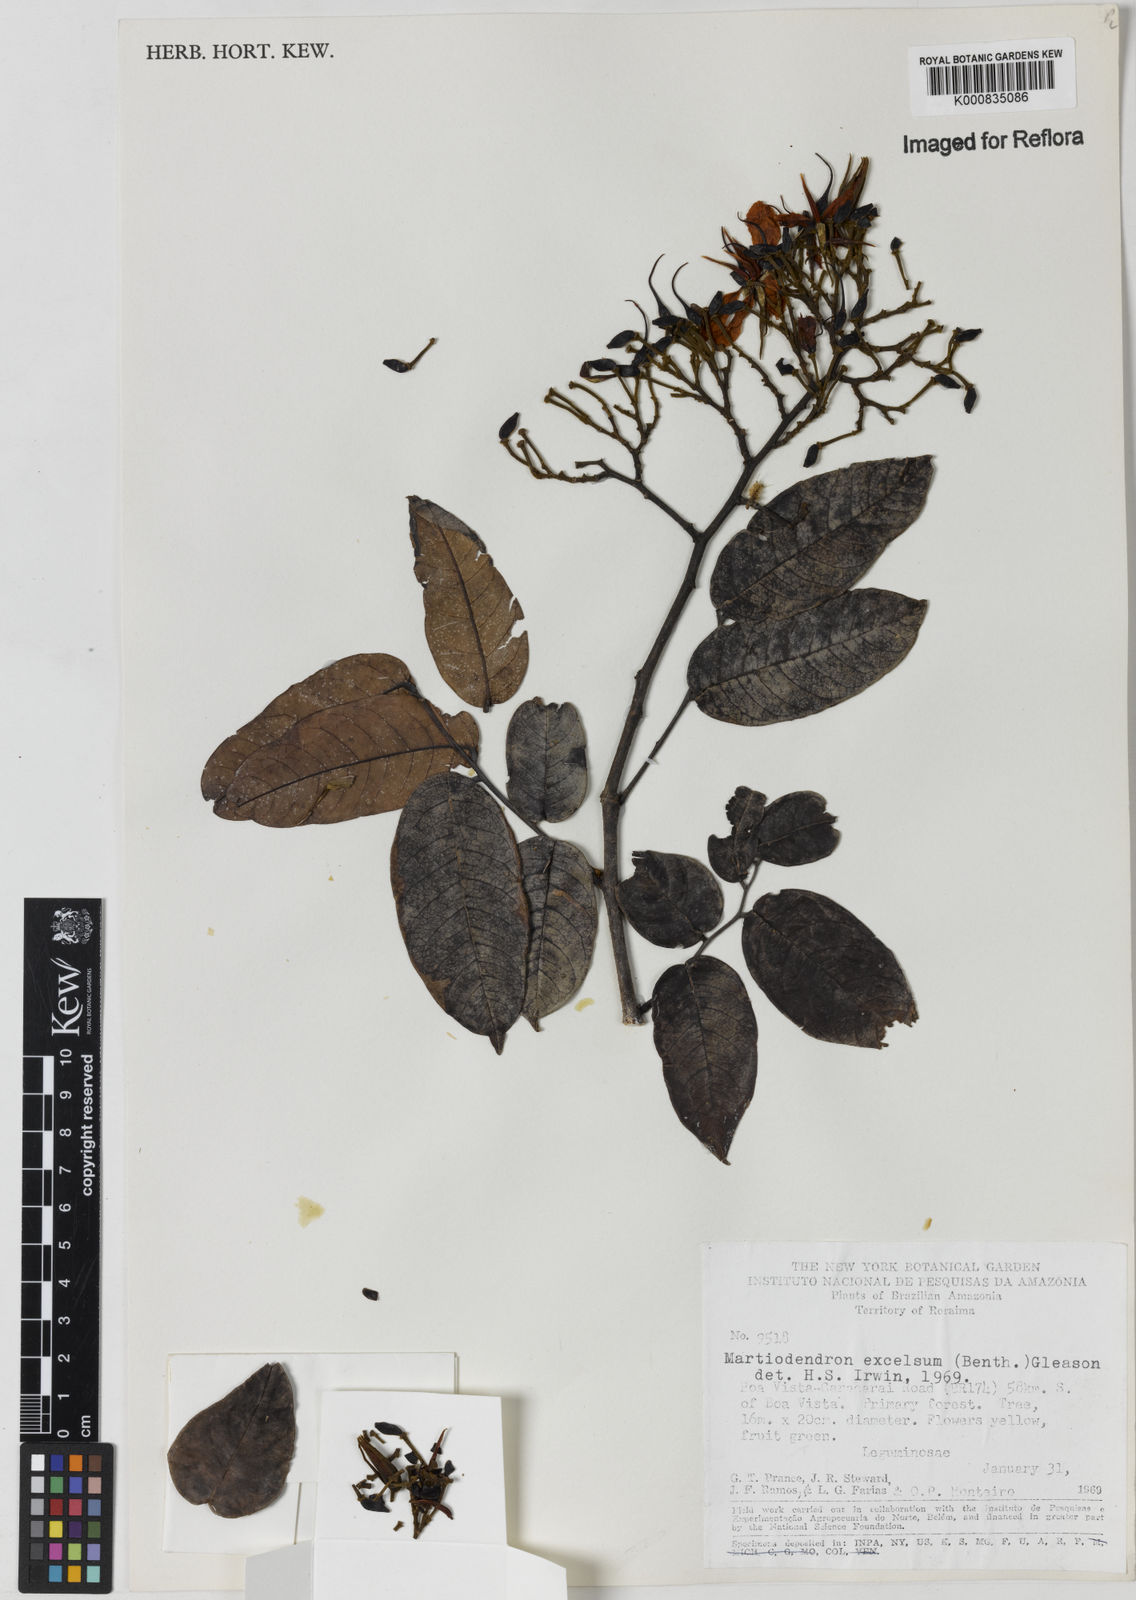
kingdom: Plantae
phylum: Tracheophyta
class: Magnoliopsida
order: Fabales
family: Fabaceae
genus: Martiodendron
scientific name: Martiodendron excelsum
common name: Tatabuballi
